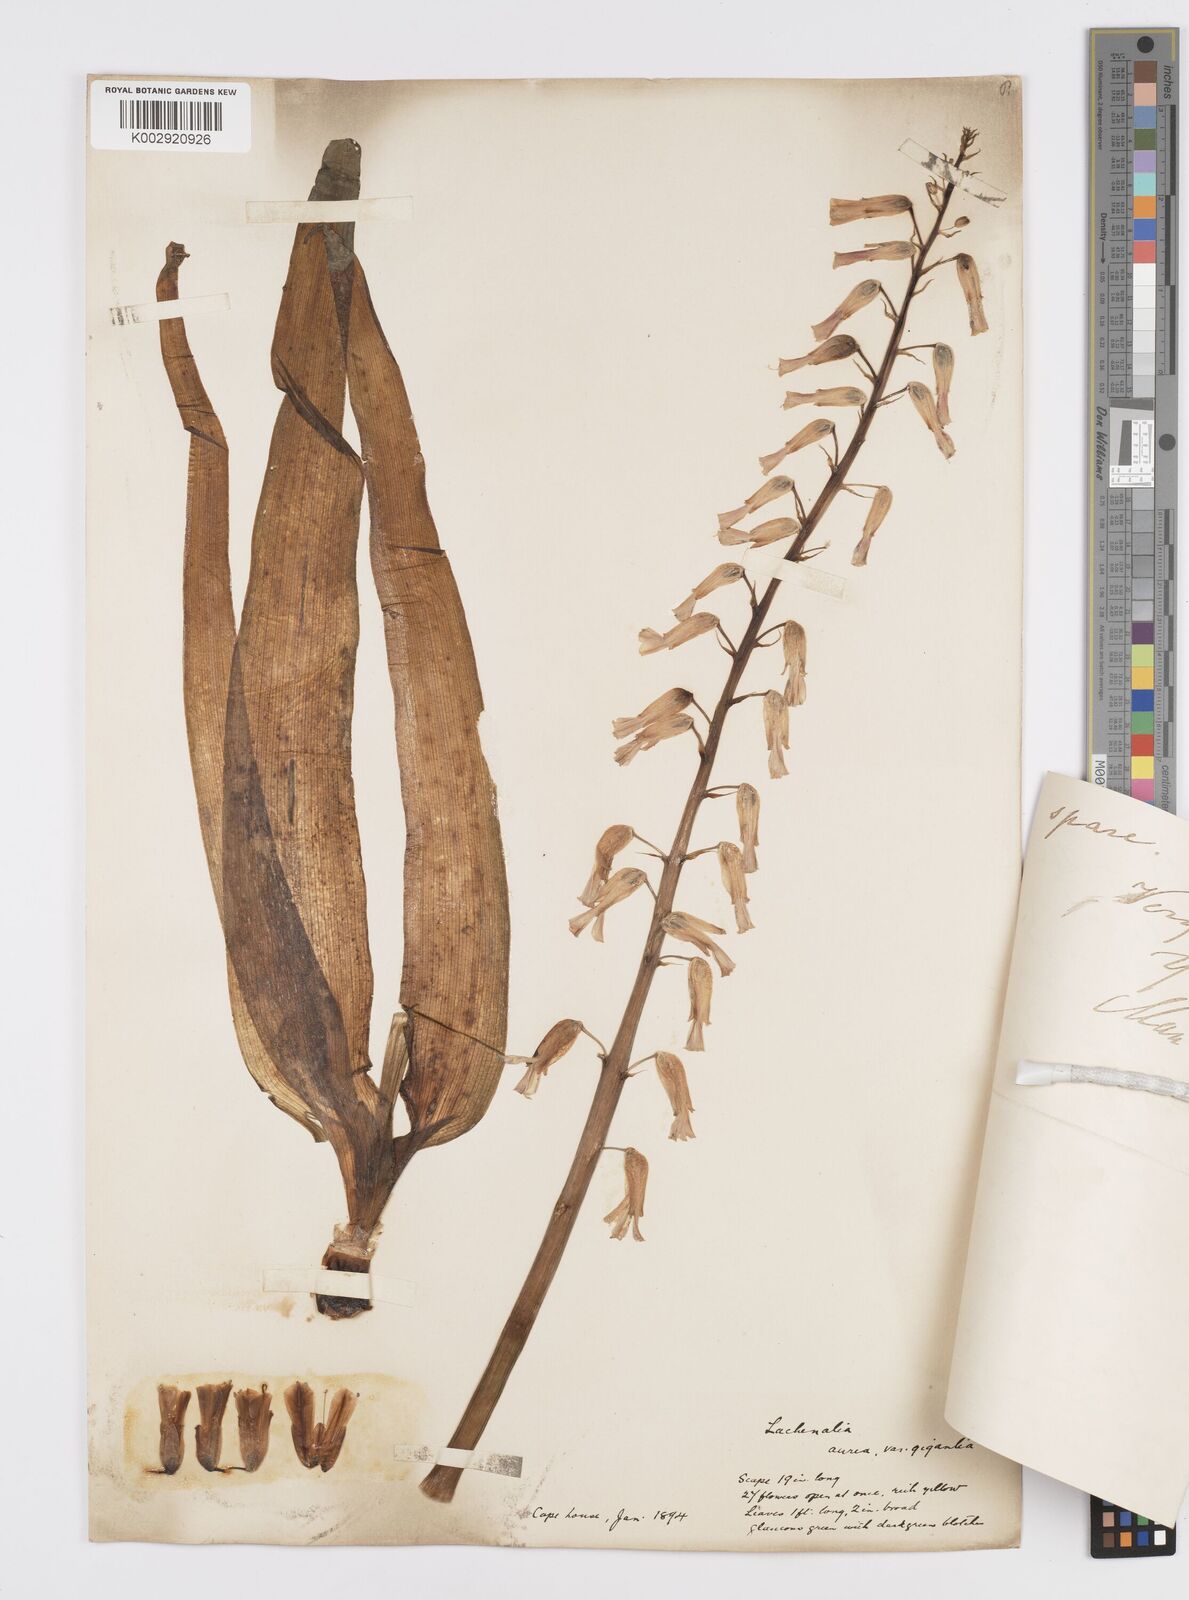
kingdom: Plantae
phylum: Tracheophyta
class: Liliopsida
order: Asparagales
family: Asparagaceae
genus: Lachenalia
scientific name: Lachenalia flava
